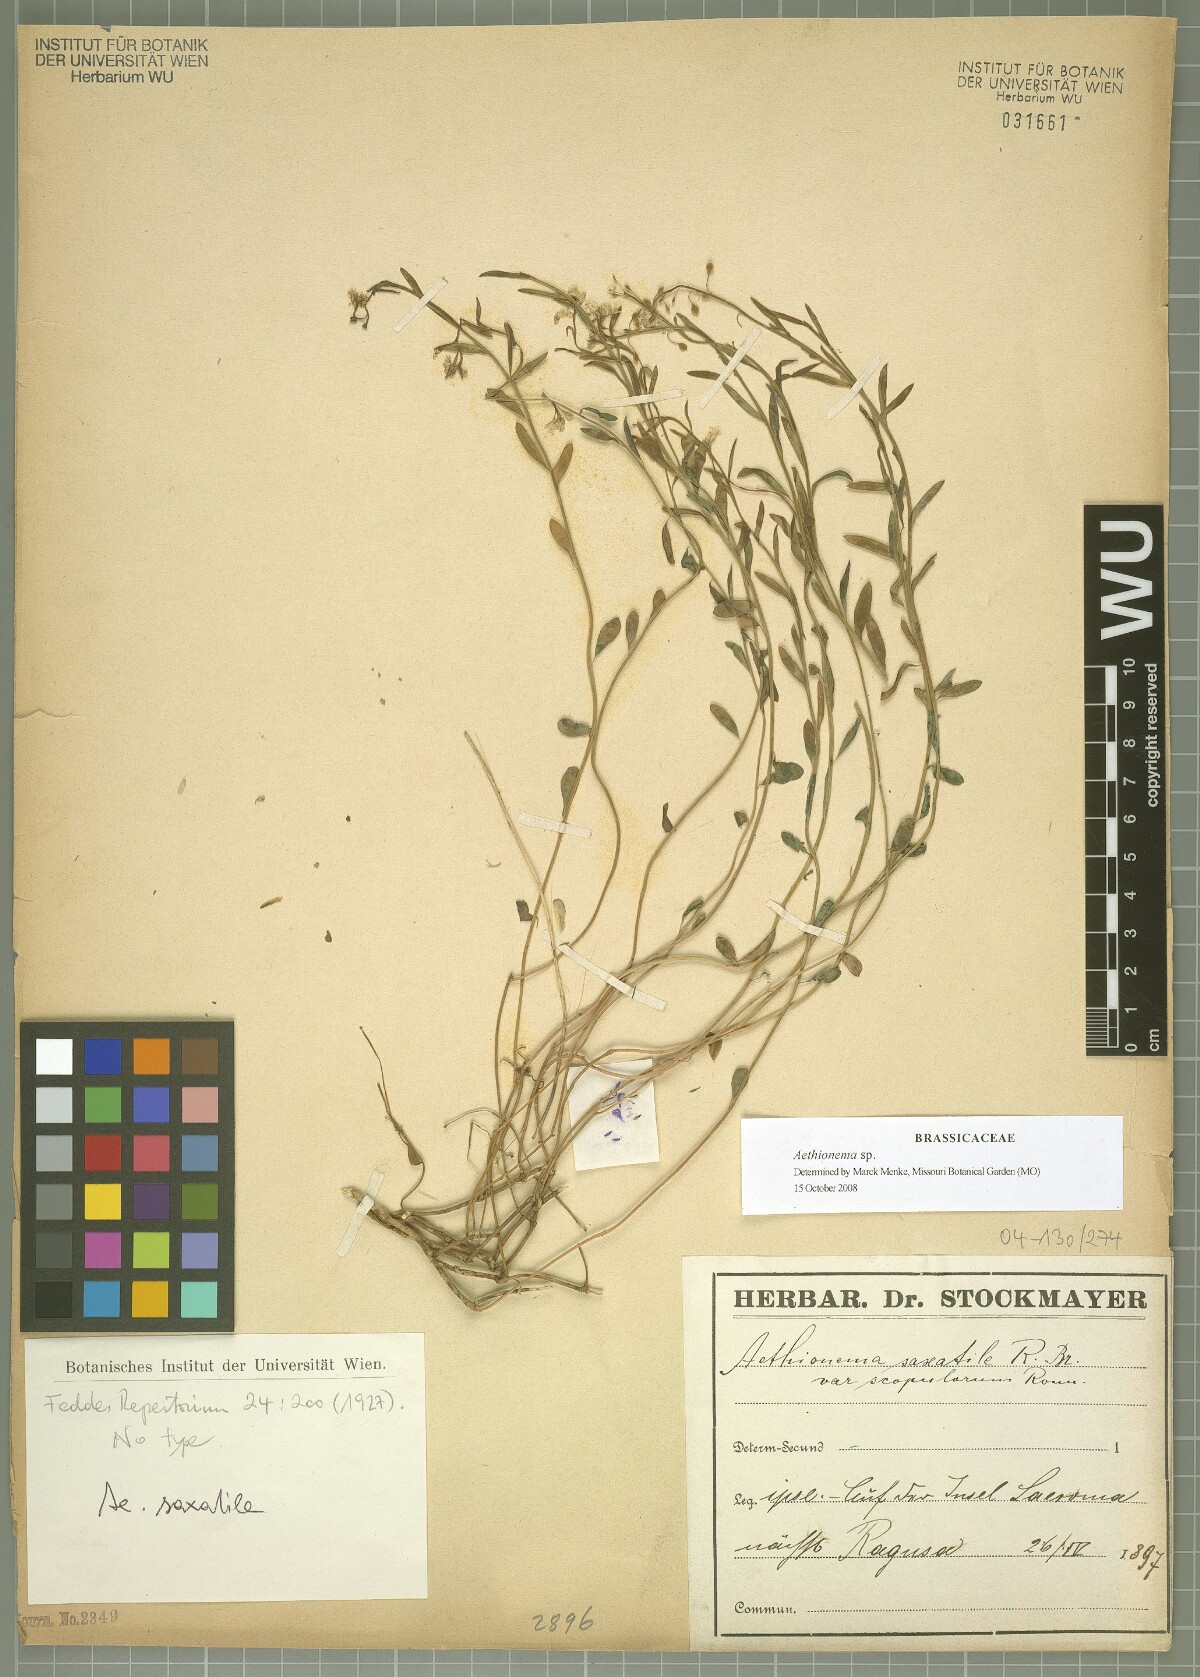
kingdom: Plantae
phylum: Tracheophyta
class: Magnoliopsida
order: Brassicales
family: Brassicaceae
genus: Aethionema
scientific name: Aethionema
